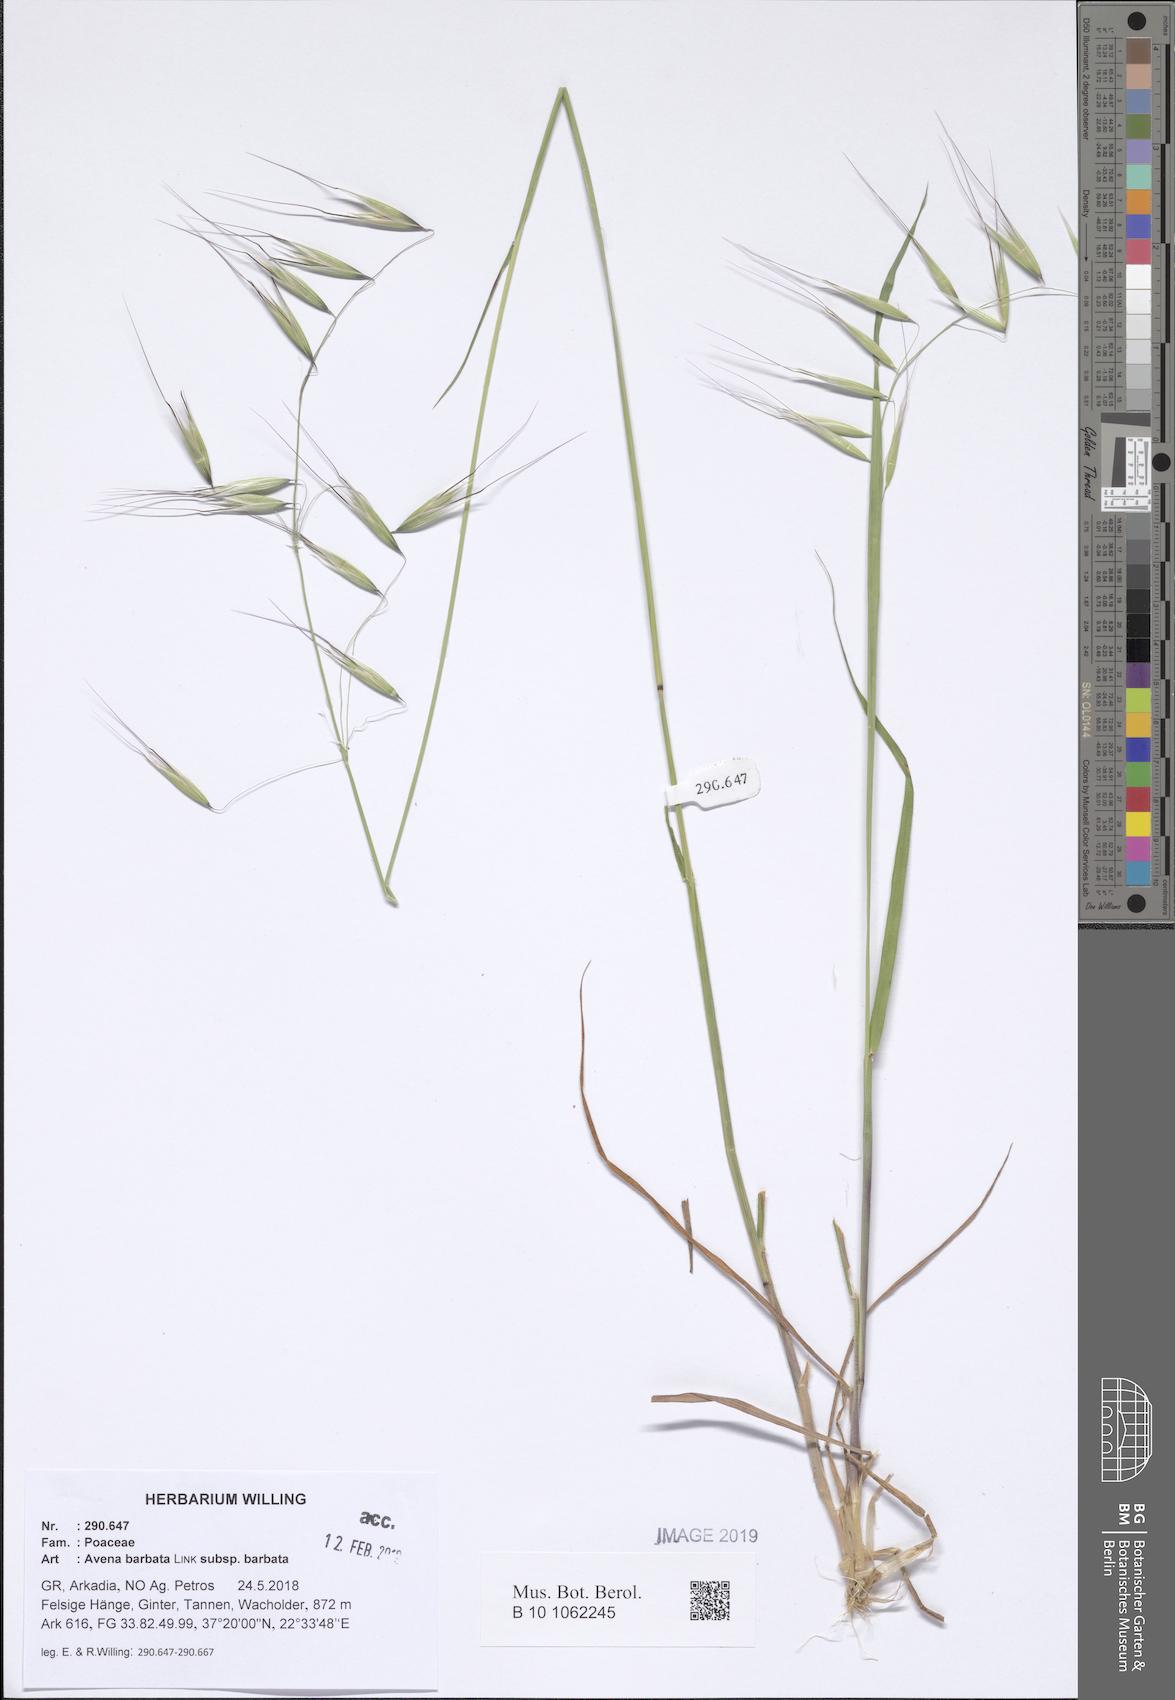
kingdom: Plantae
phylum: Tracheophyta
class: Liliopsida
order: Poales
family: Poaceae
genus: Avena
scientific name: Avena barbata
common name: Slender oat
